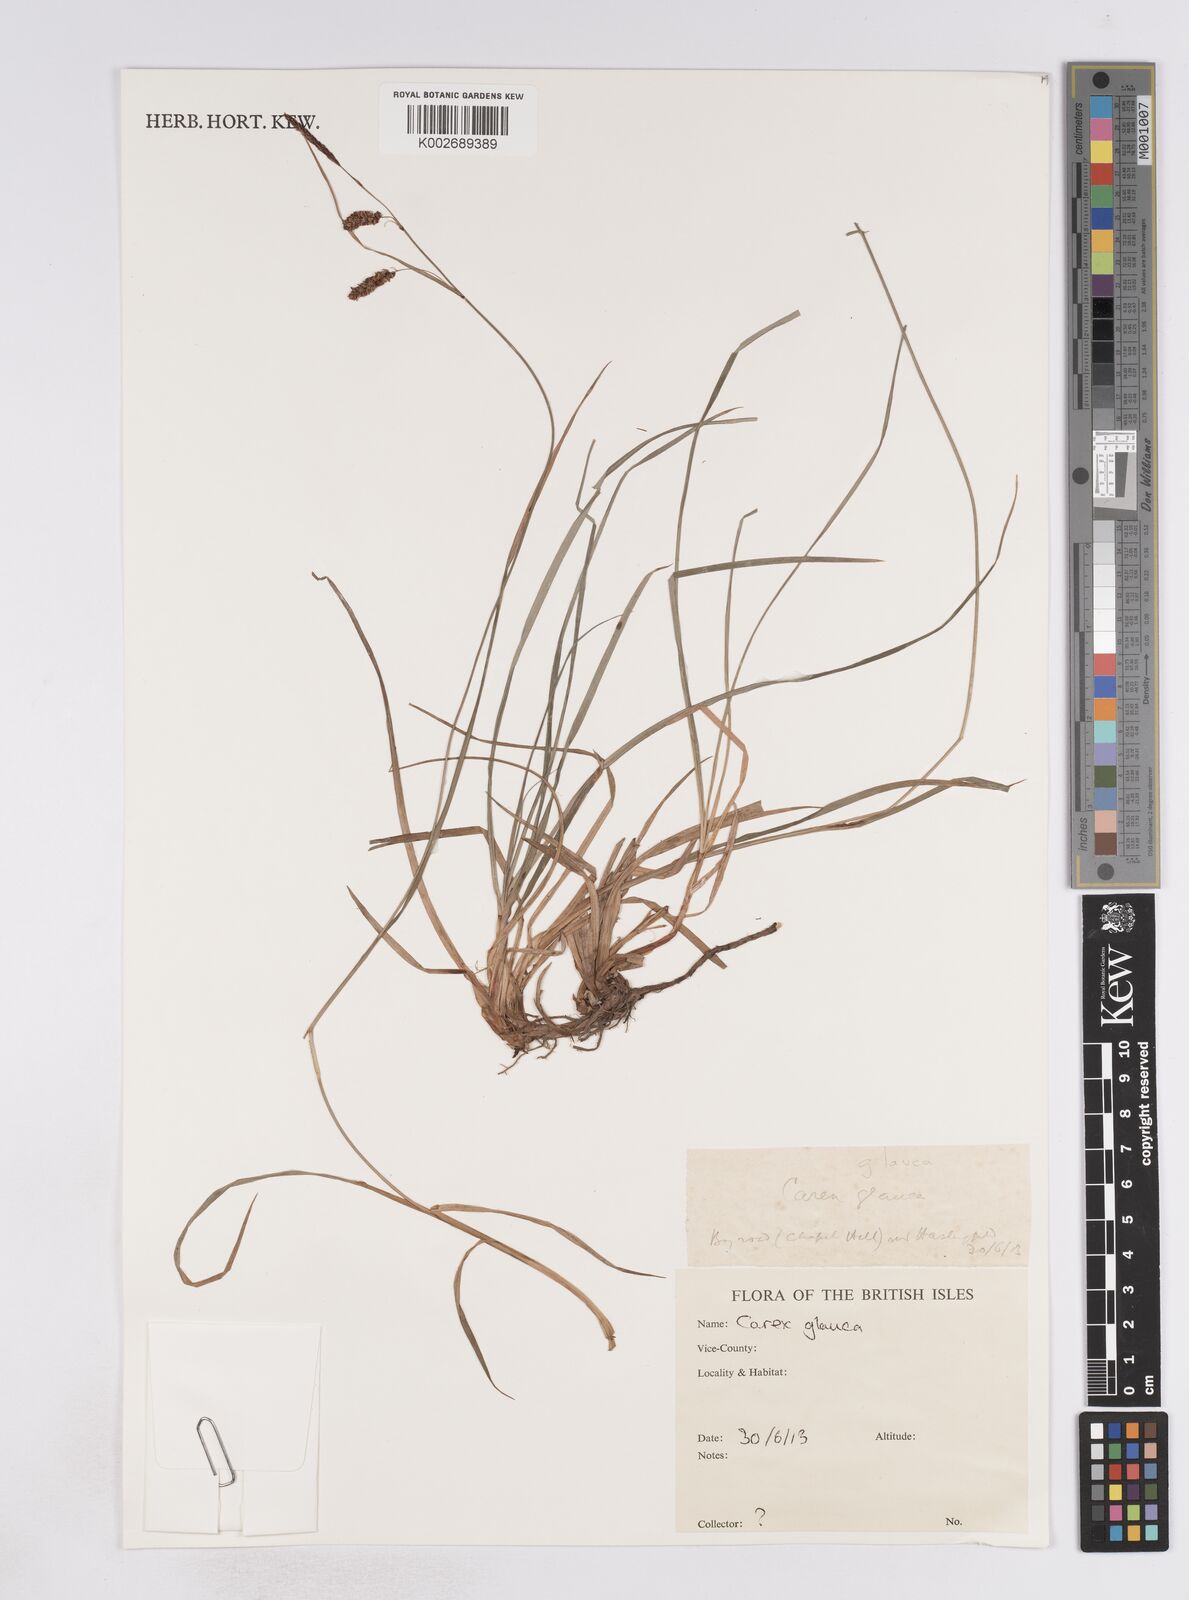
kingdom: Plantae
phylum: Tracheophyta
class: Liliopsida
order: Poales
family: Cyperaceae
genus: Carex
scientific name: Carex flacca
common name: Glaucous sedge
